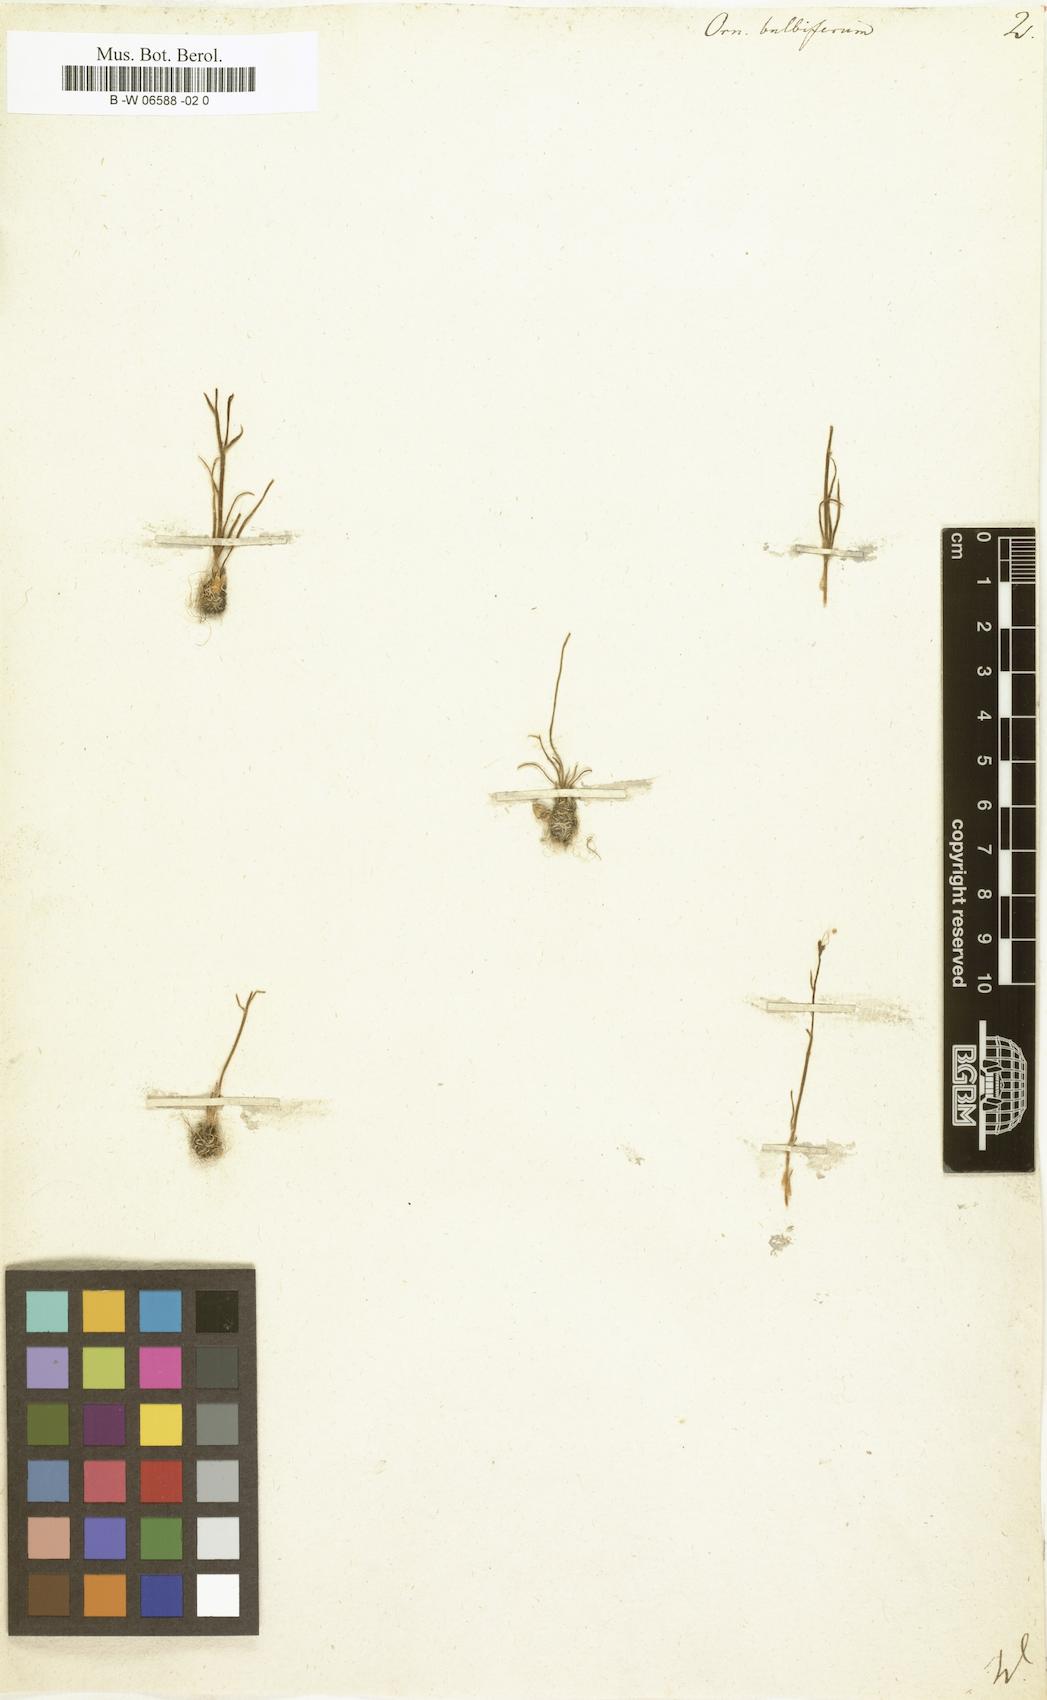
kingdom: Plantae
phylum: Tracheophyta
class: Liliopsida
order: Liliales
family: Liliaceae
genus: Gagea
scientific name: Gagea bulbifera
